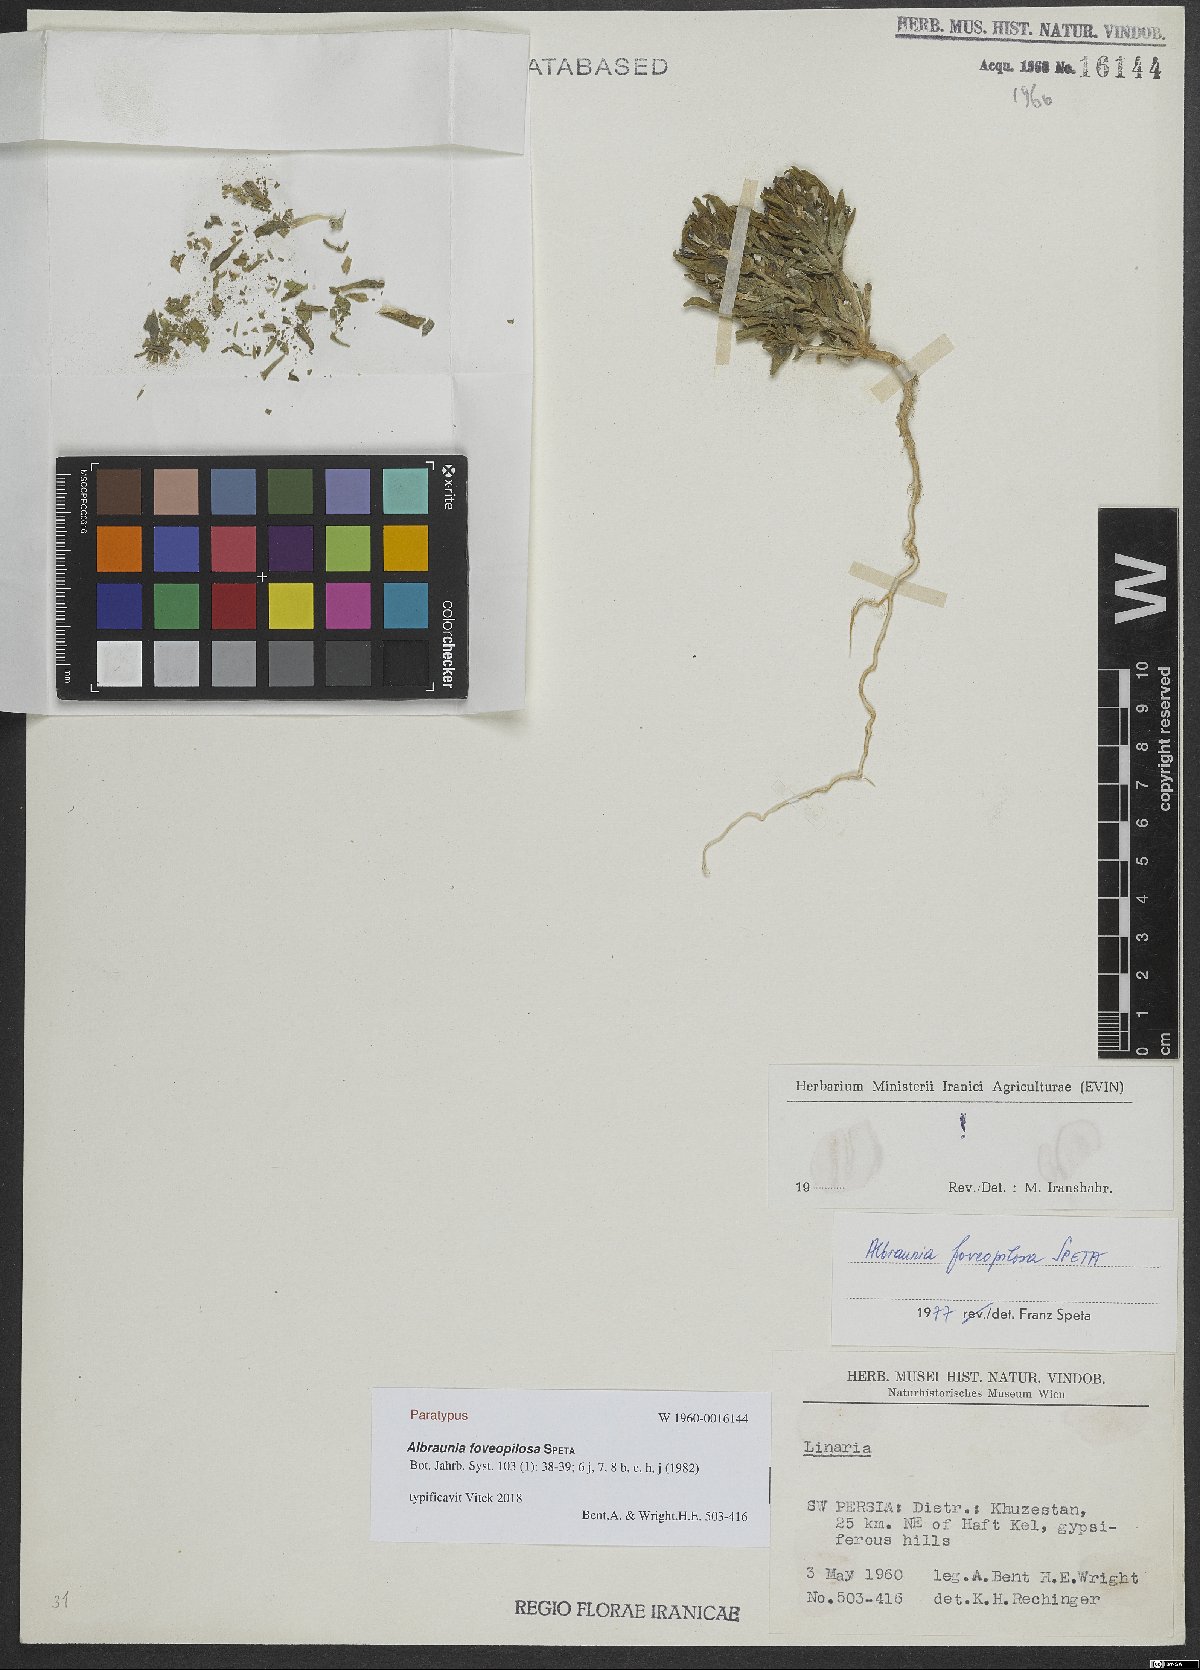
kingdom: Plantae
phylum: Tracheophyta
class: Magnoliopsida
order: Lamiales
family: Plantaginaceae
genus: Albraunia
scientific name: Albraunia foveopilosa
